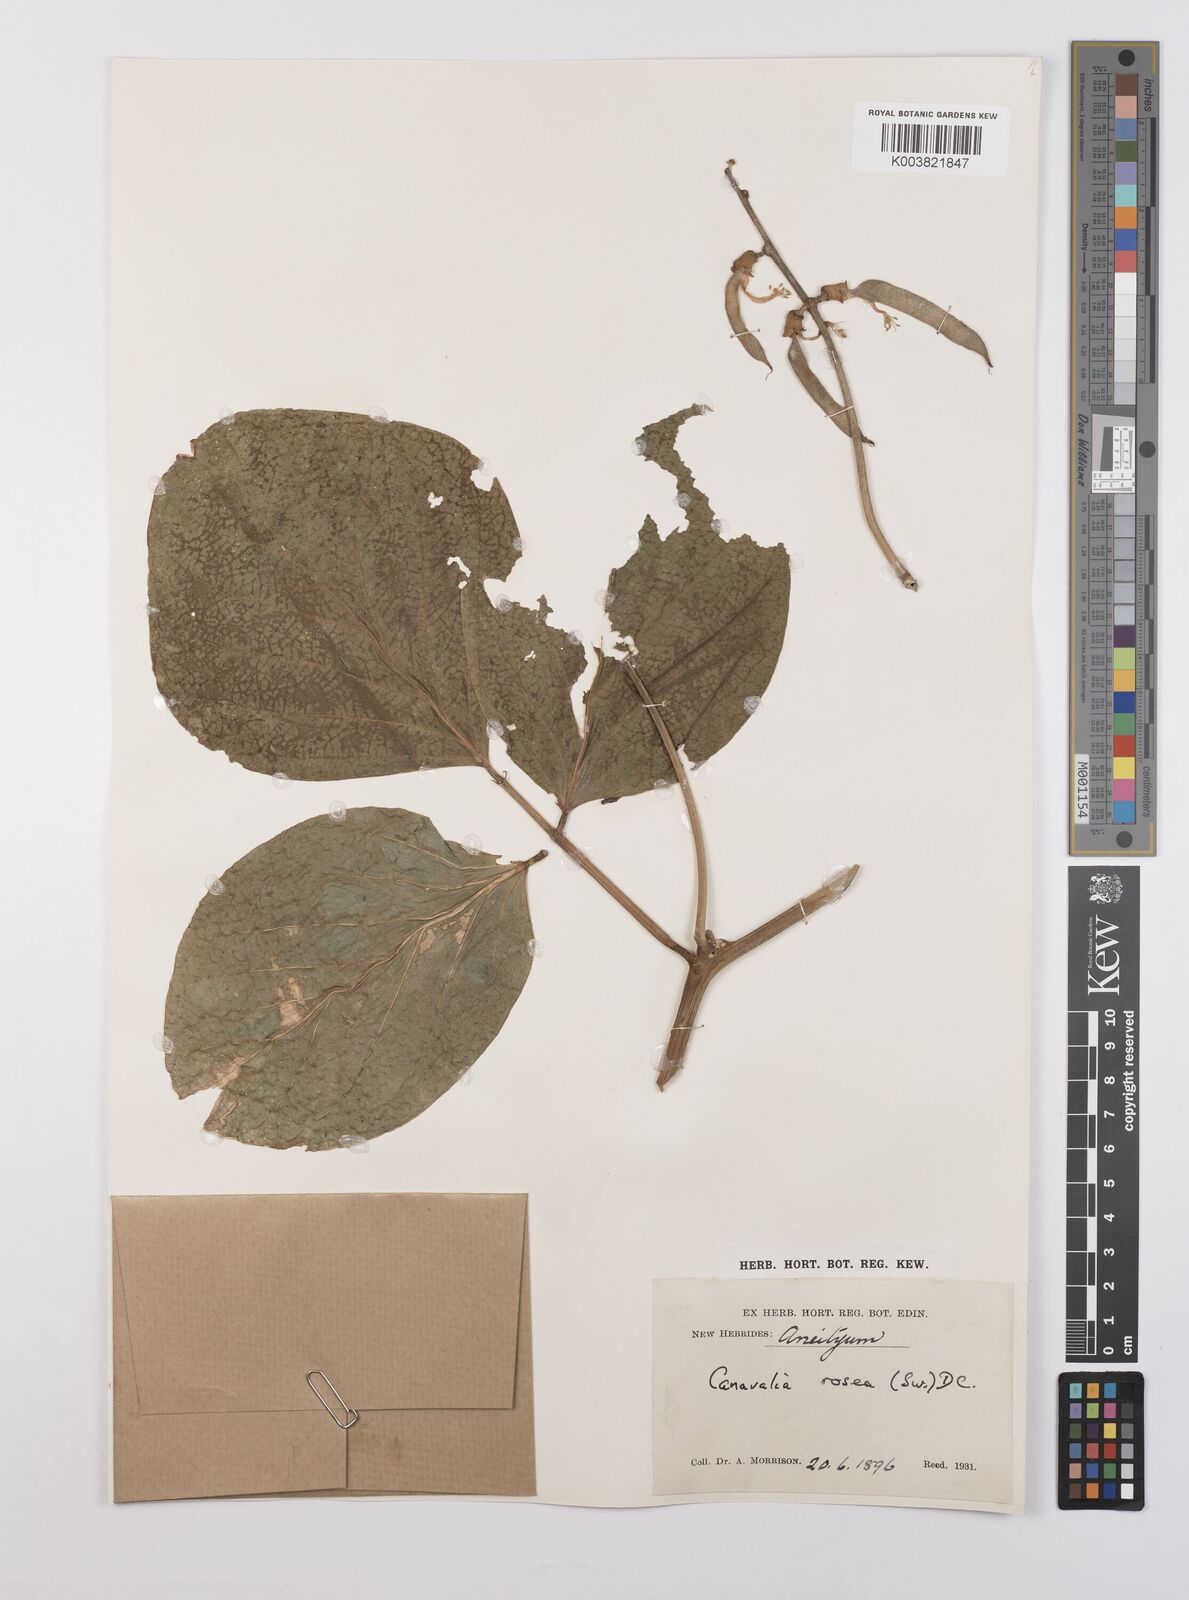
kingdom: Plantae
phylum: Tracheophyta
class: Magnoliopsida
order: Fabales
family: Fabaceae
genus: Canavalia
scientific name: Canavalia rosea
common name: Beach-bean
